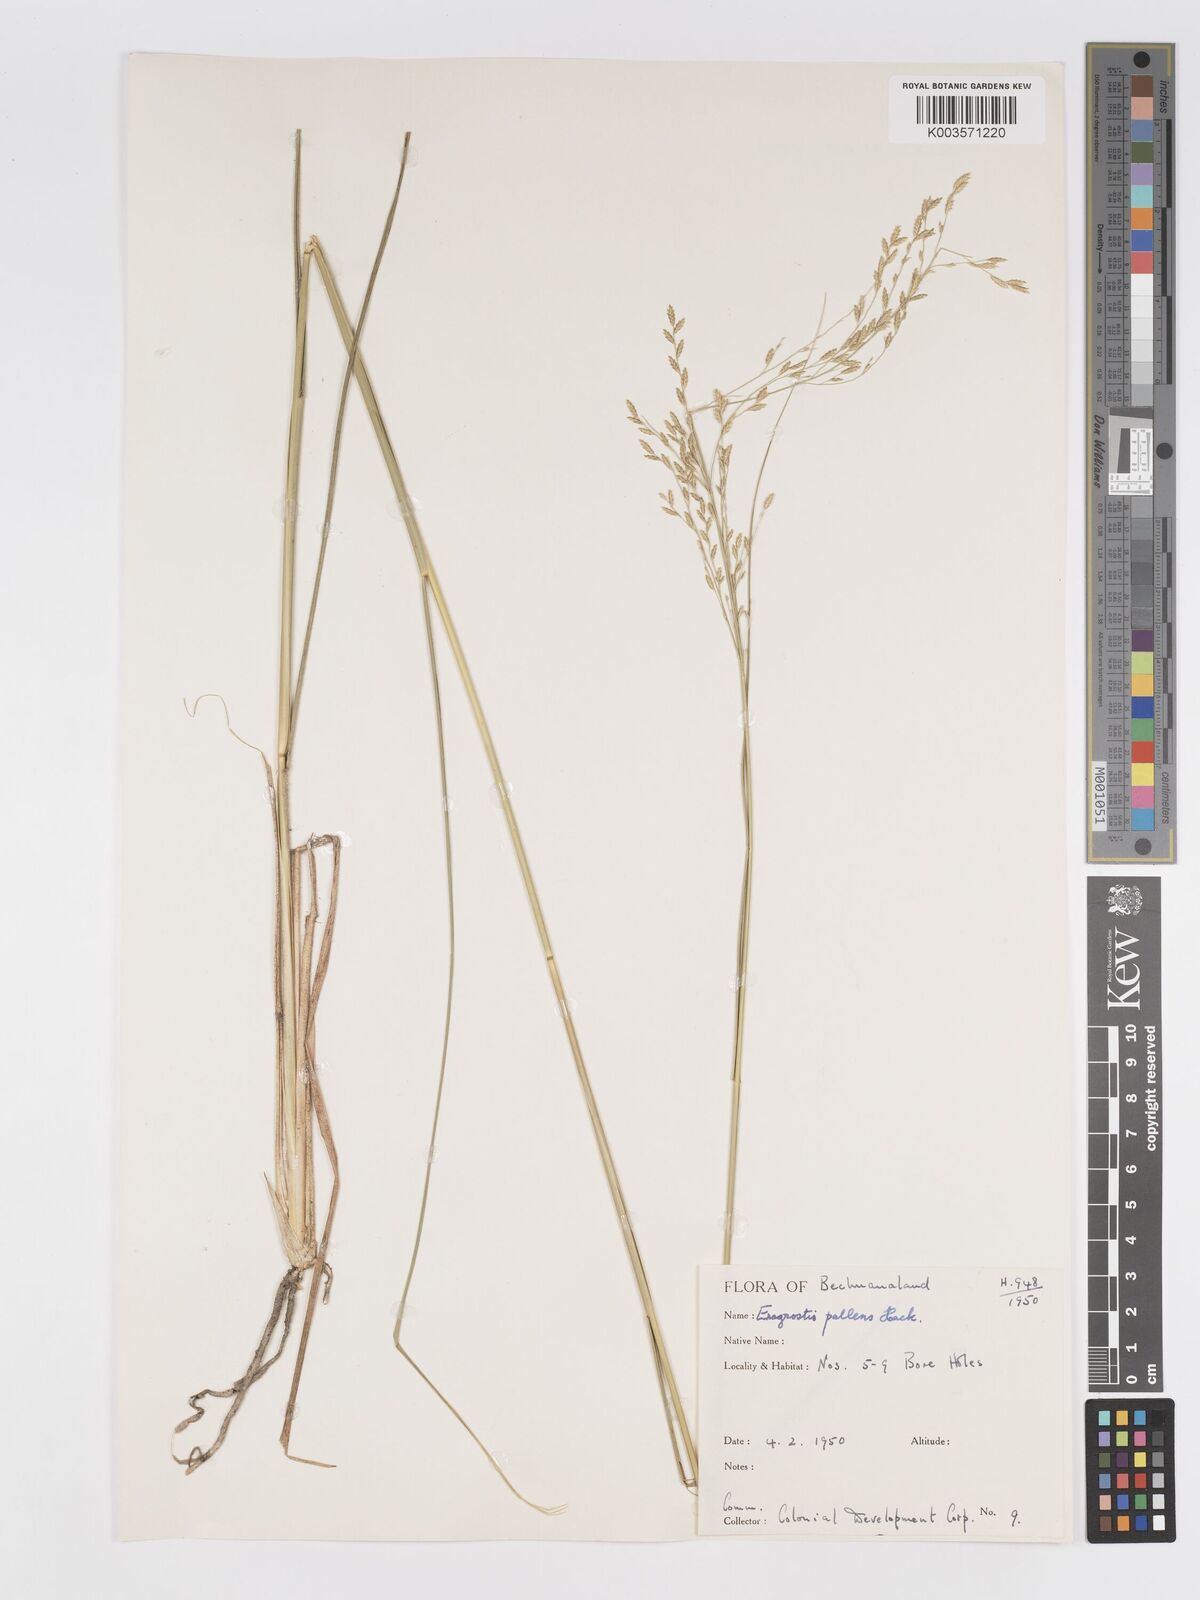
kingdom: Plantae
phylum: Tracheophyta
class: Liliopsida
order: Poales
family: Poaceae
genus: Eragrostis
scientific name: Eragrostis pallens
